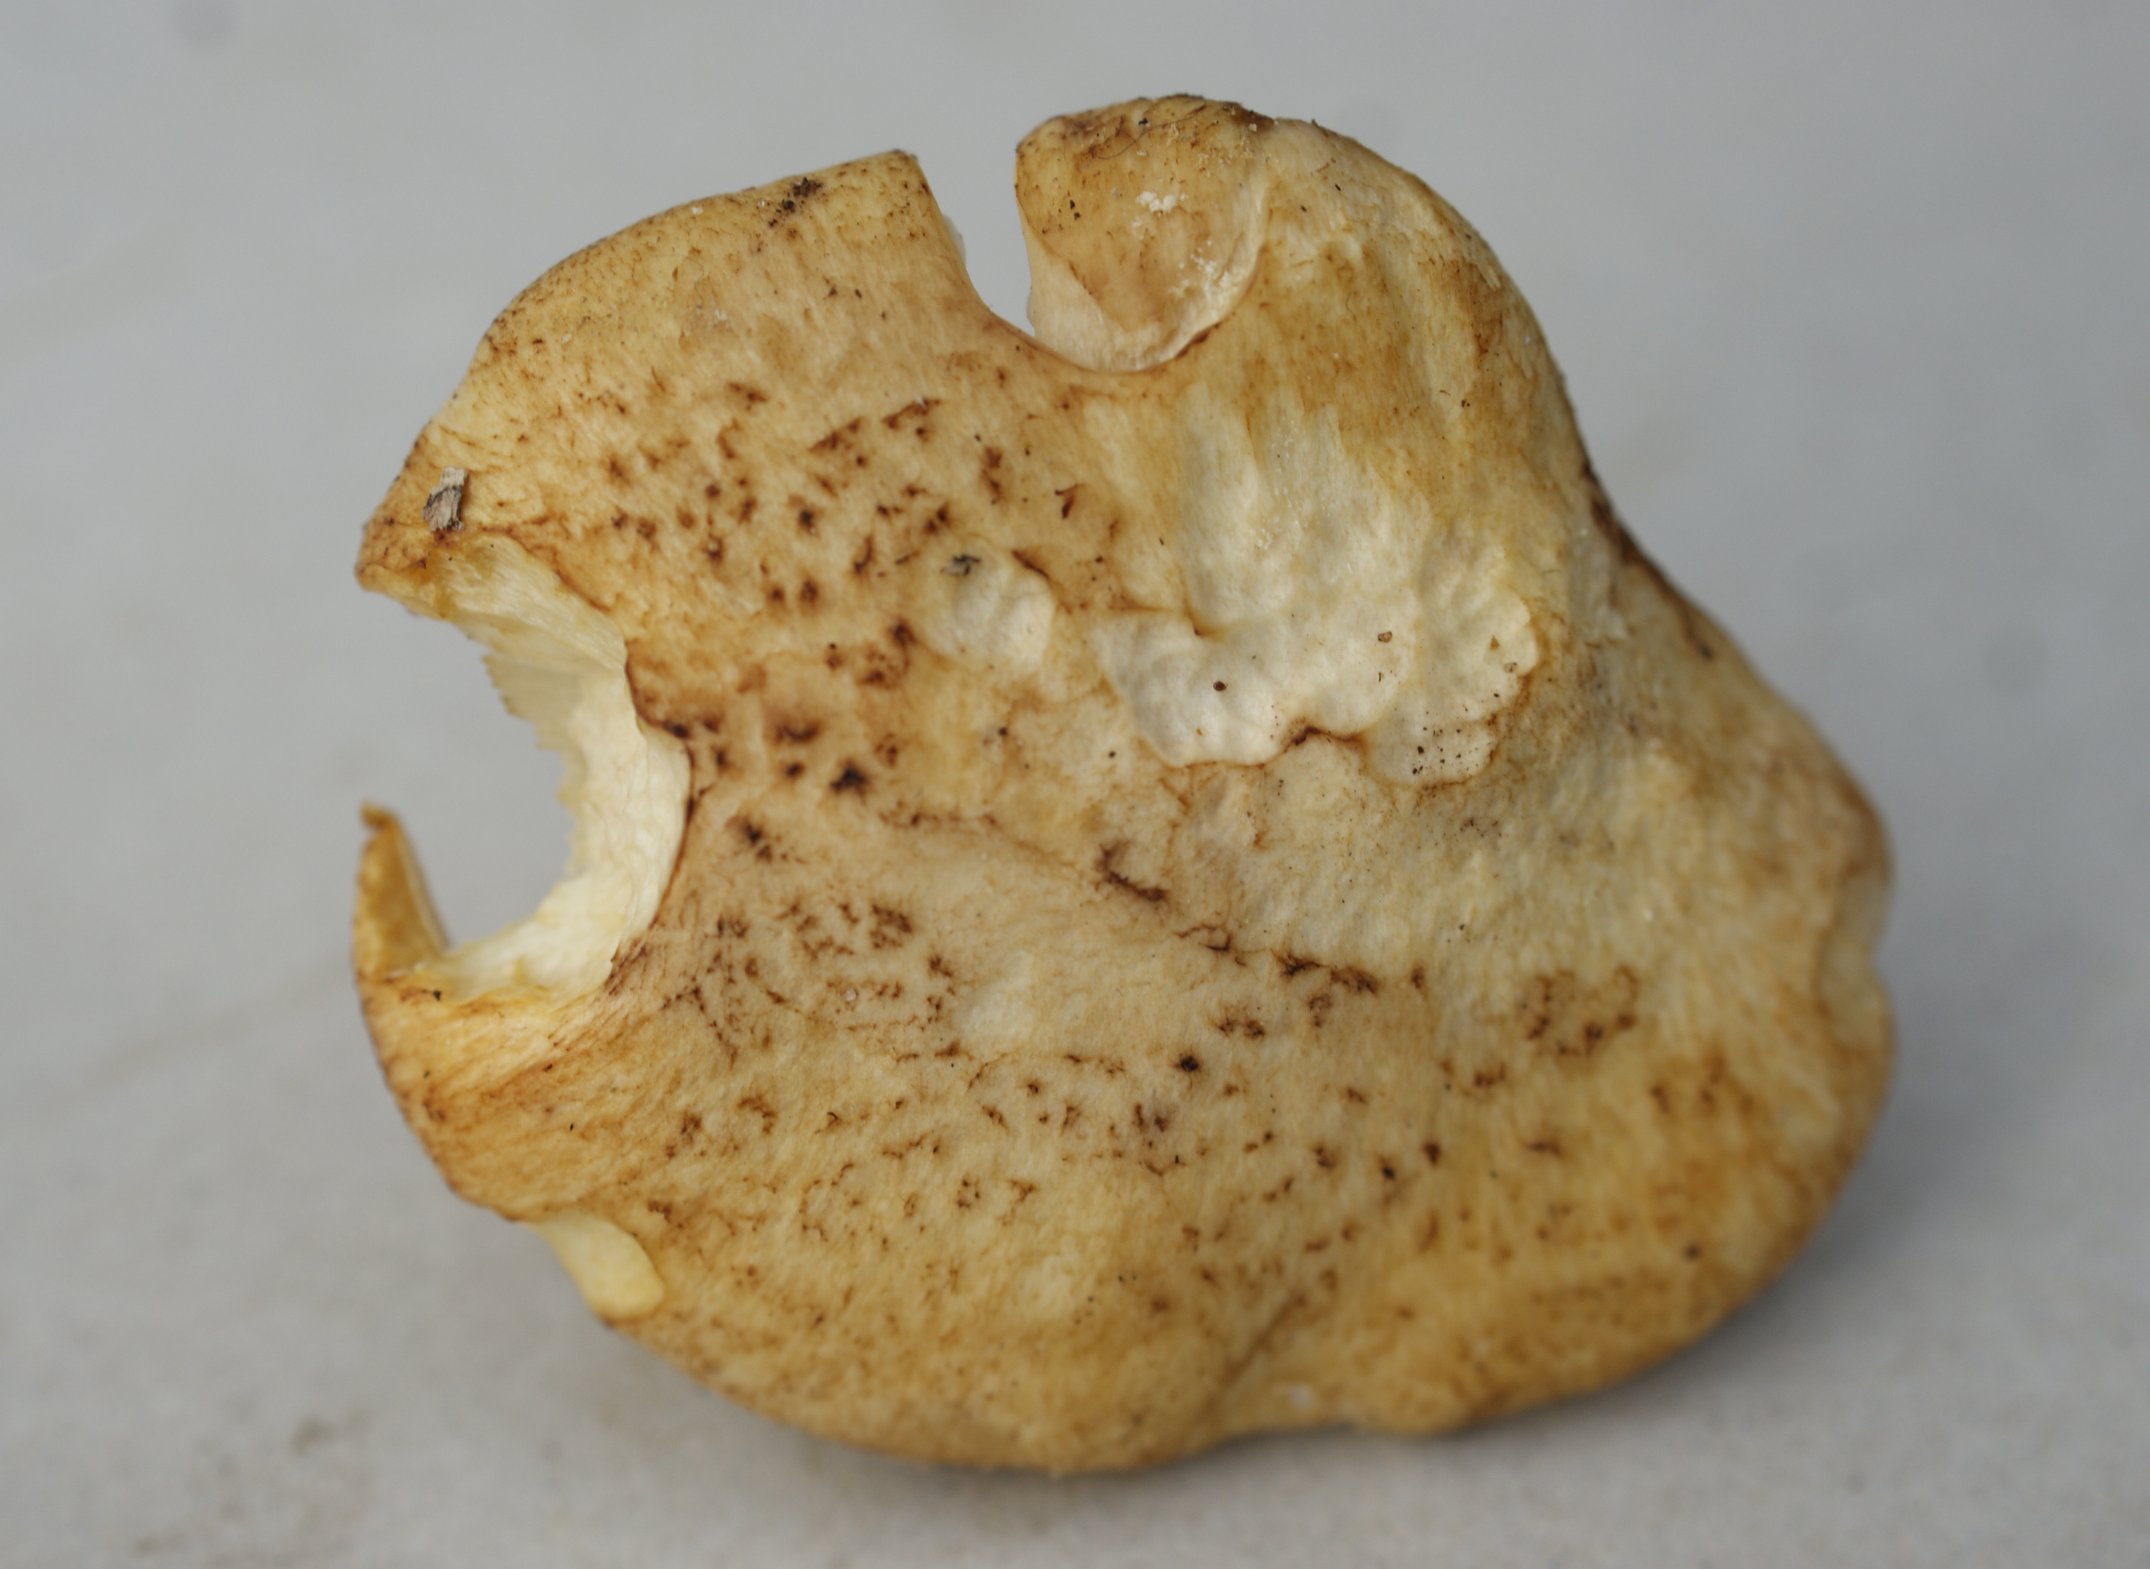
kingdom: Fungi
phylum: Basidiomycota
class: Agaricomycetes
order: Gloeophyllales
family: Gloeophyllaceae
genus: Neolentinus
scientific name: Neolentinus lepideus
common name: skællet sejhat
